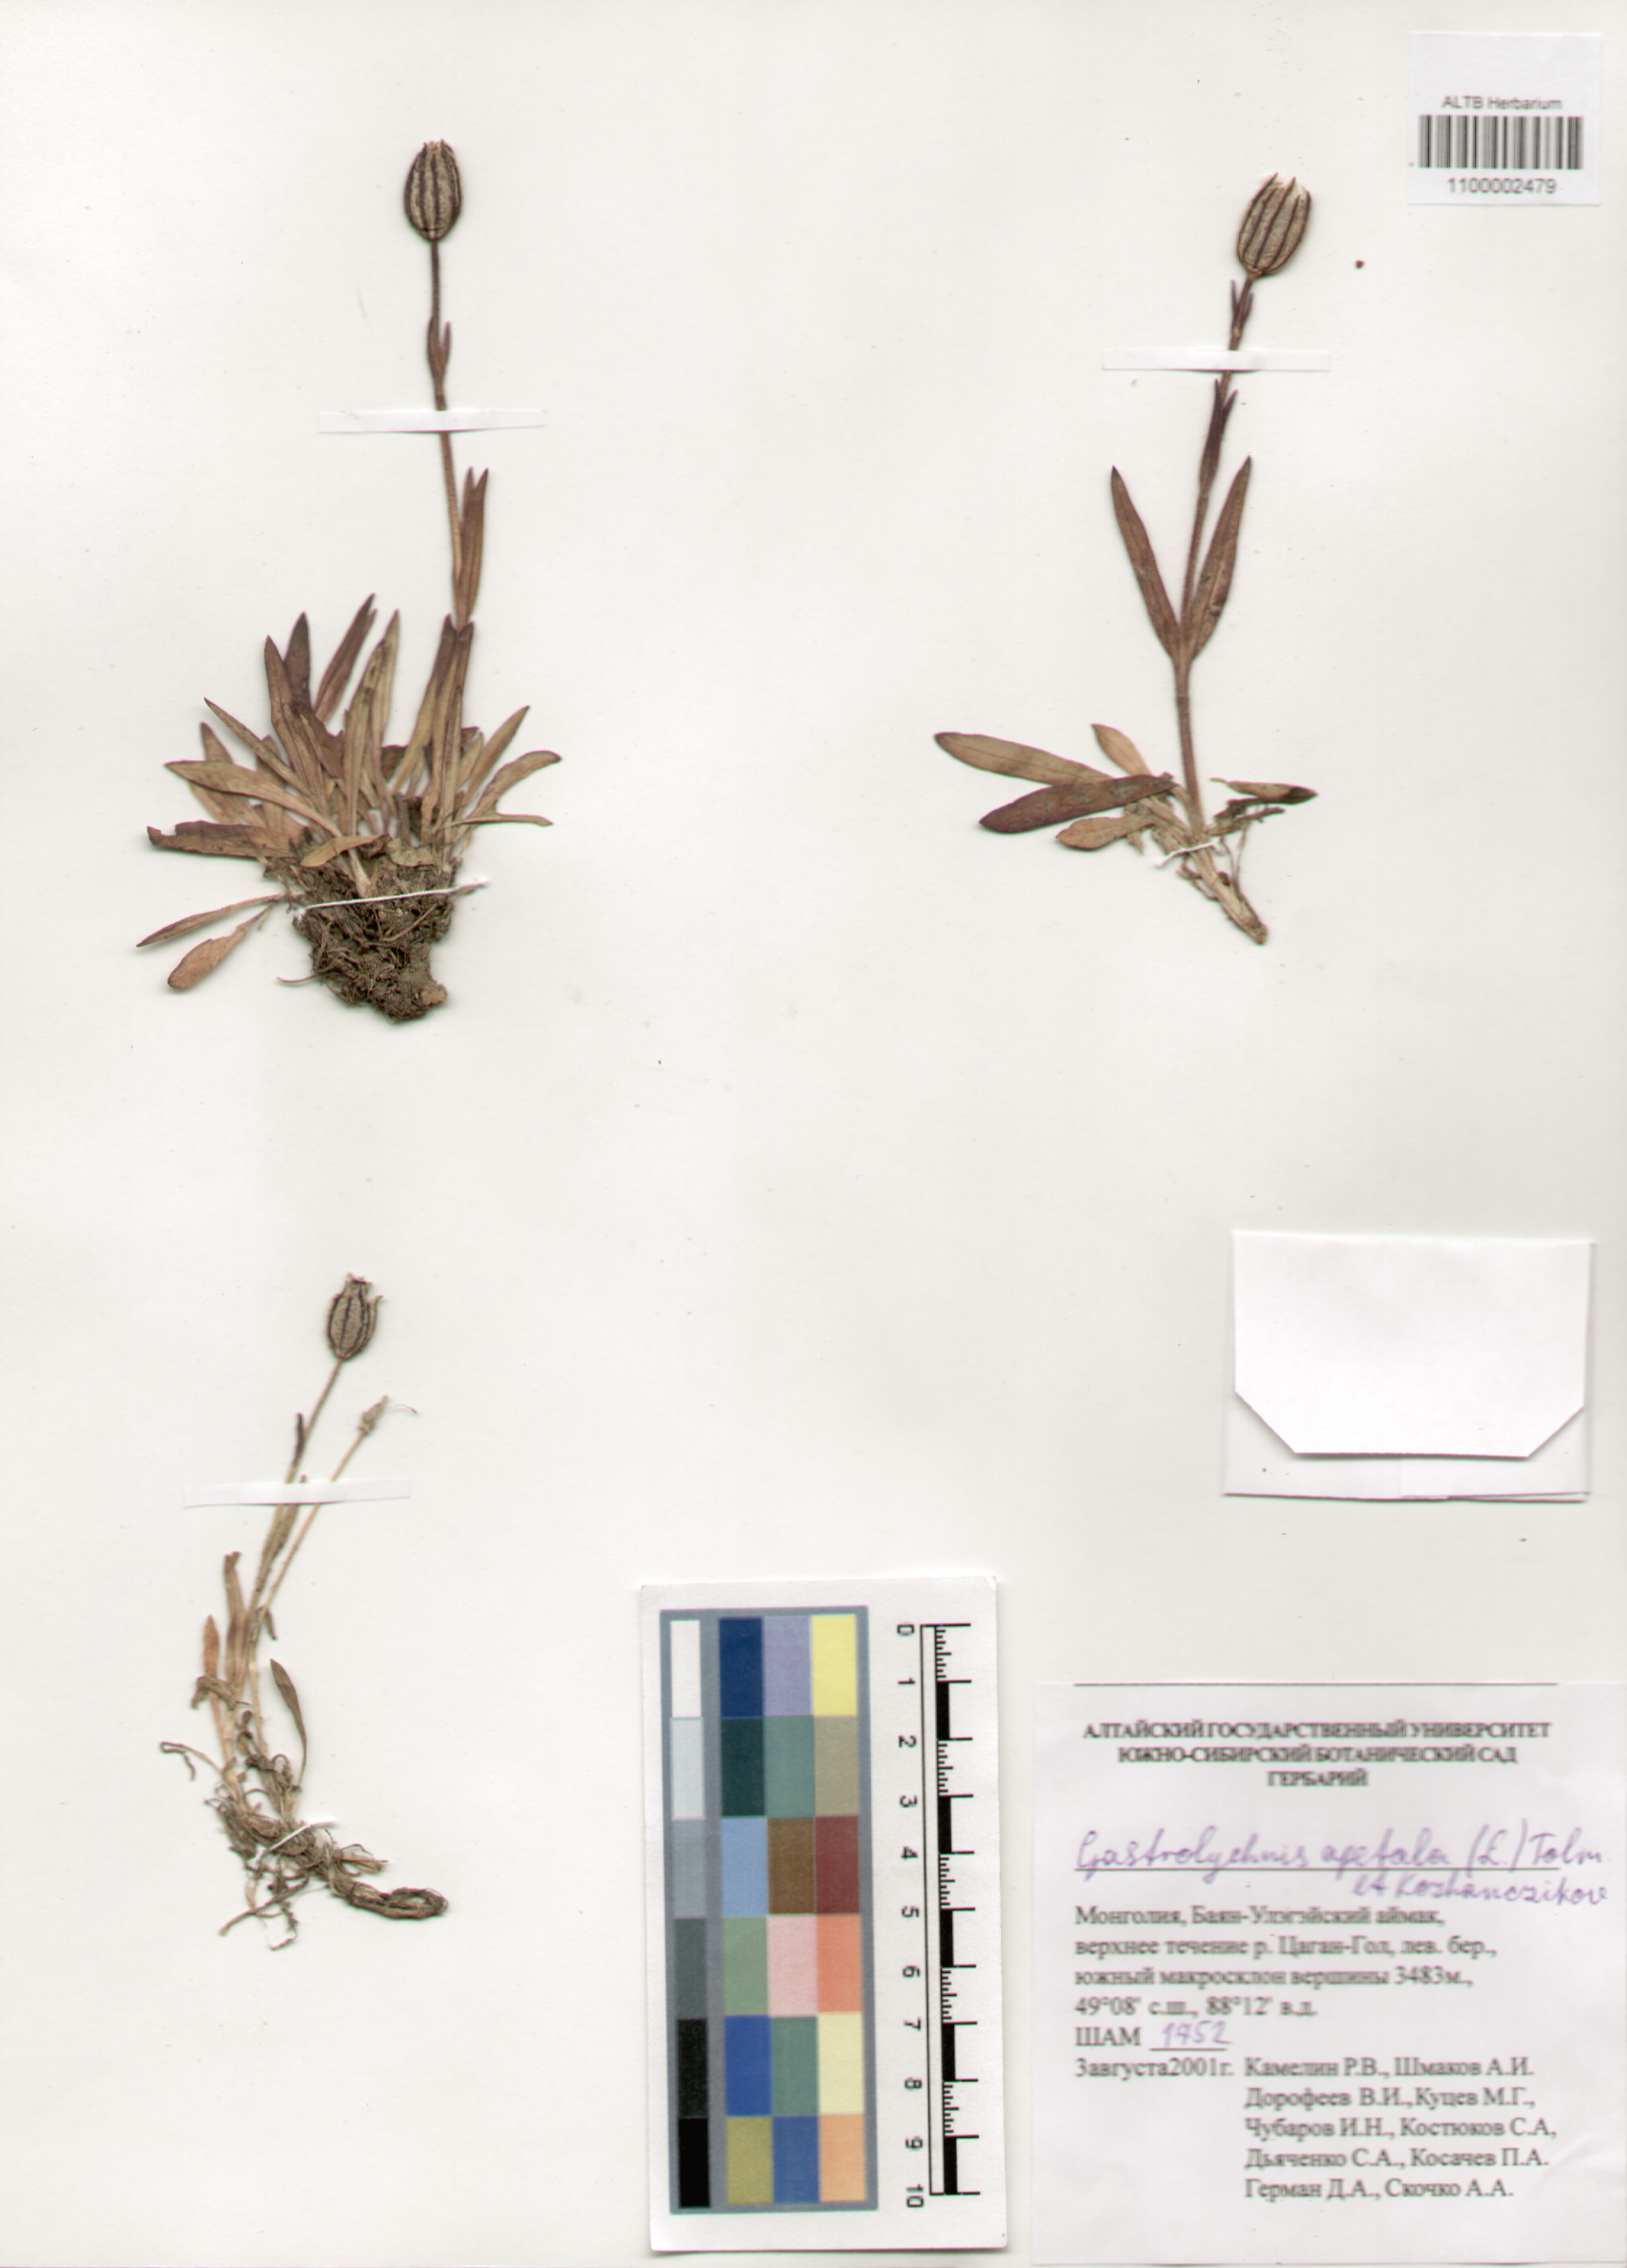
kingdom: Plantae
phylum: Tracheophyta
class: Magnoliopsida
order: Caryophyllales
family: Caryophyllaceae
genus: Silene
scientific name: Silene wahlbergella
